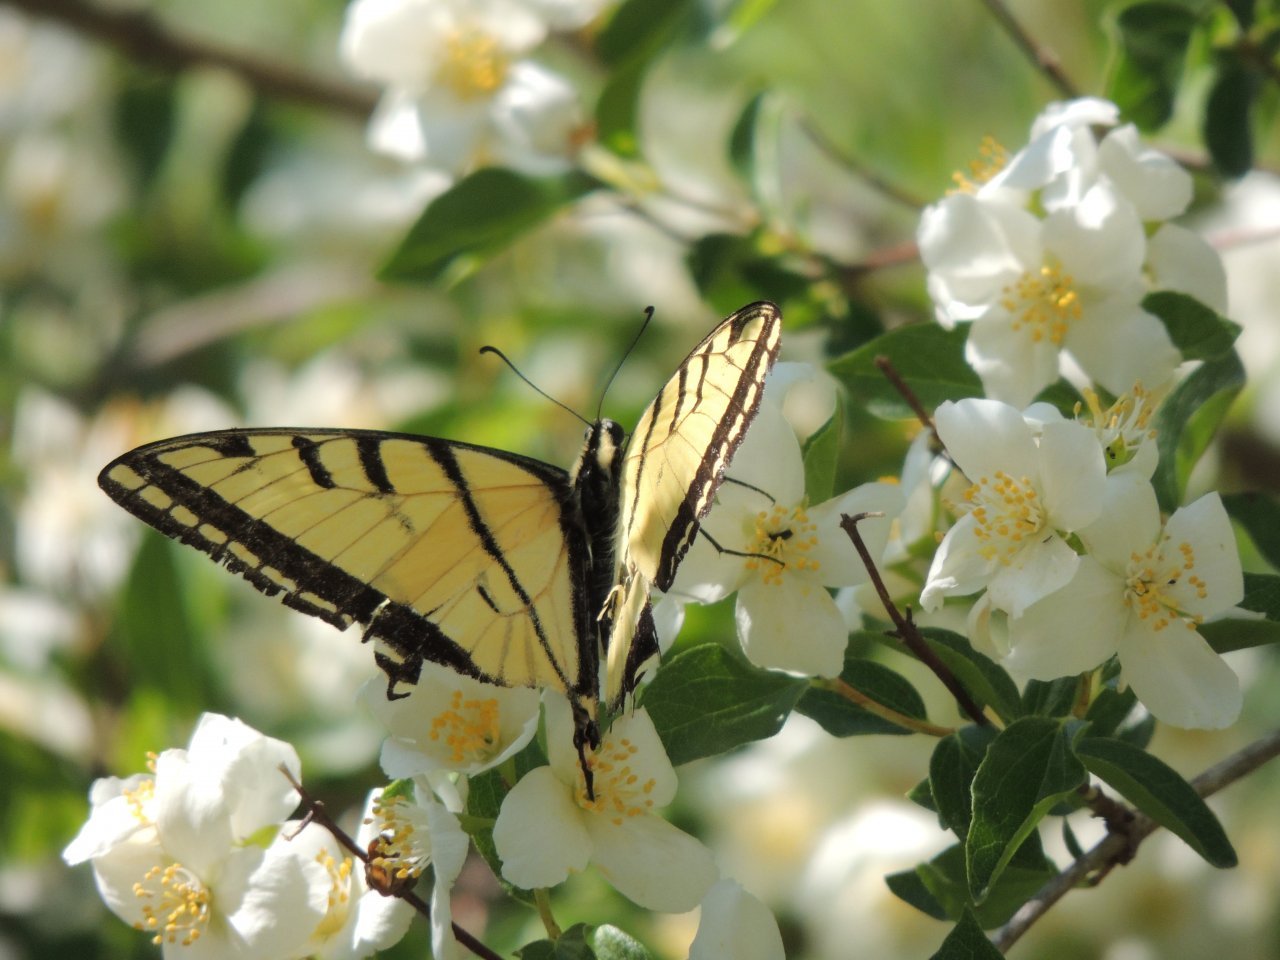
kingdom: Animalia
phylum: Arthropoda
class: Insecta
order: Lepidoptera
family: Papilionidae
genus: Papilio
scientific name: Papilio multicaudata
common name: Two-tailed Swallowtail
